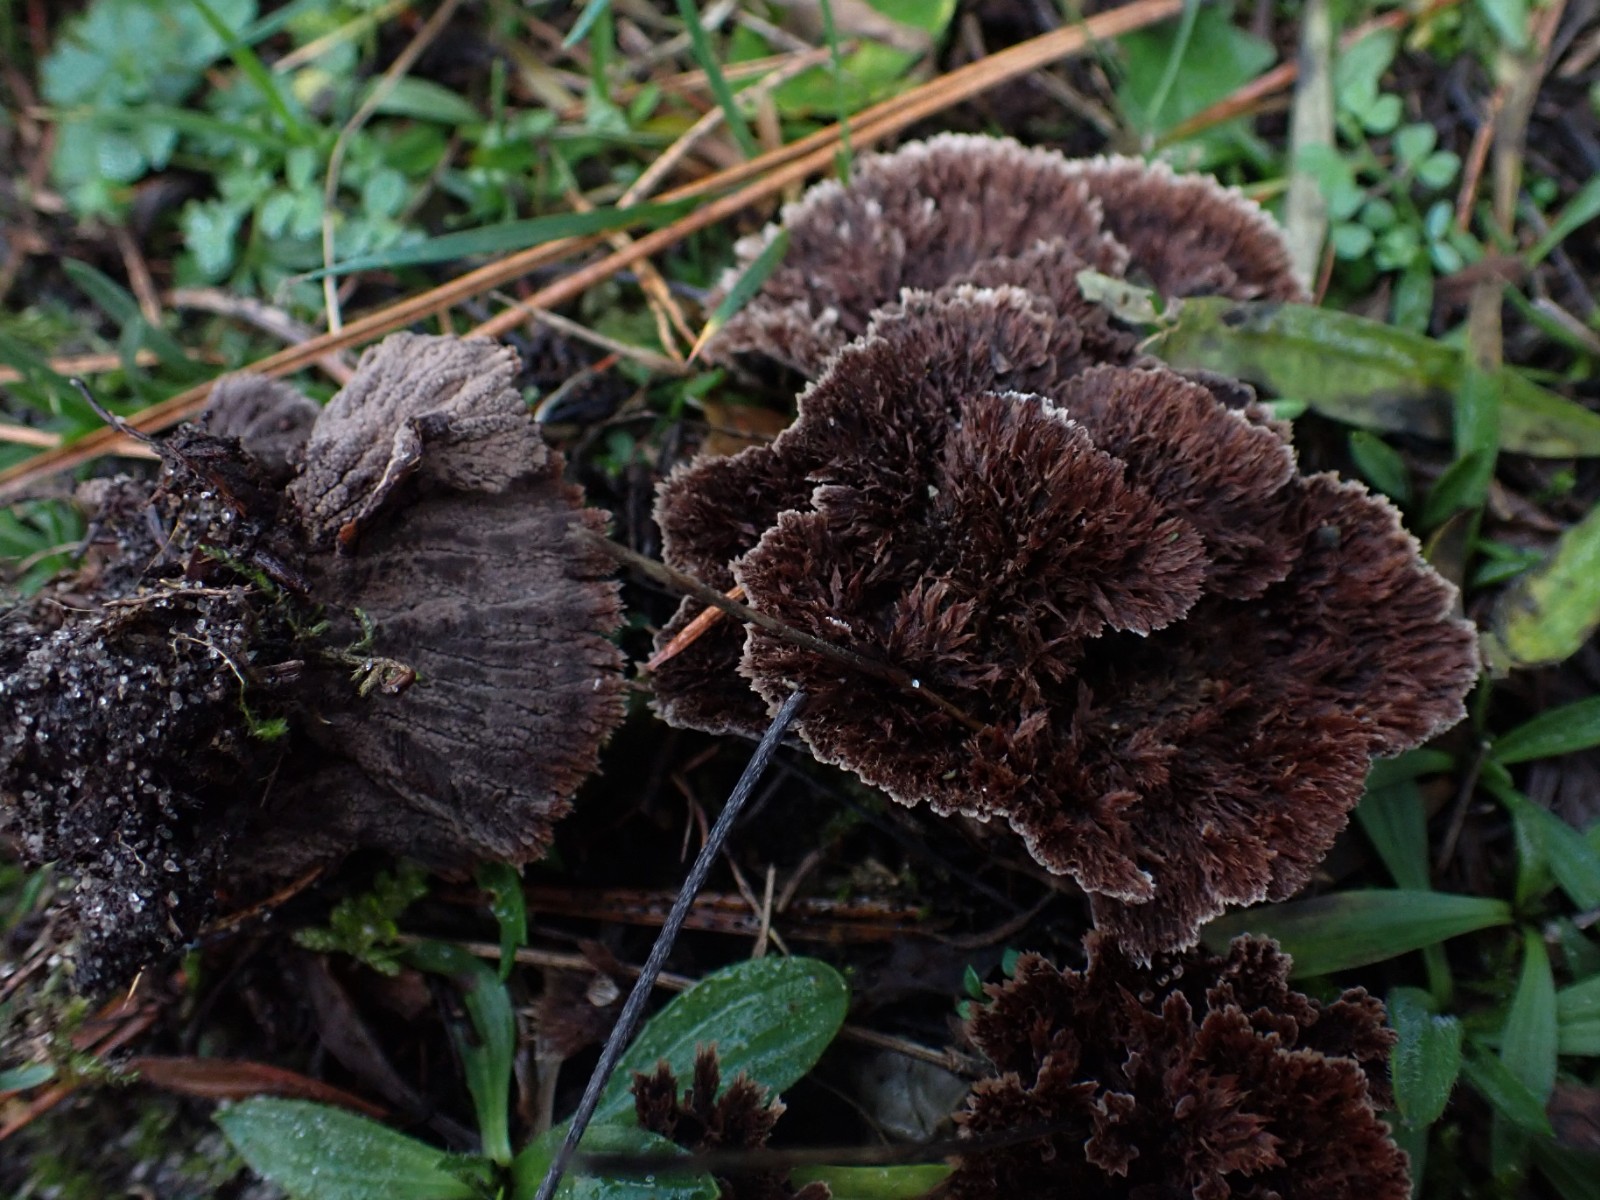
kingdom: Fungi
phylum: Basidiomycota
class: Agaricomycetes
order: Thelephorales
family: Thelephoraceae
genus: Thelephora
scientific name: Thelephora terrestris
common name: fliget frynsesvamp
